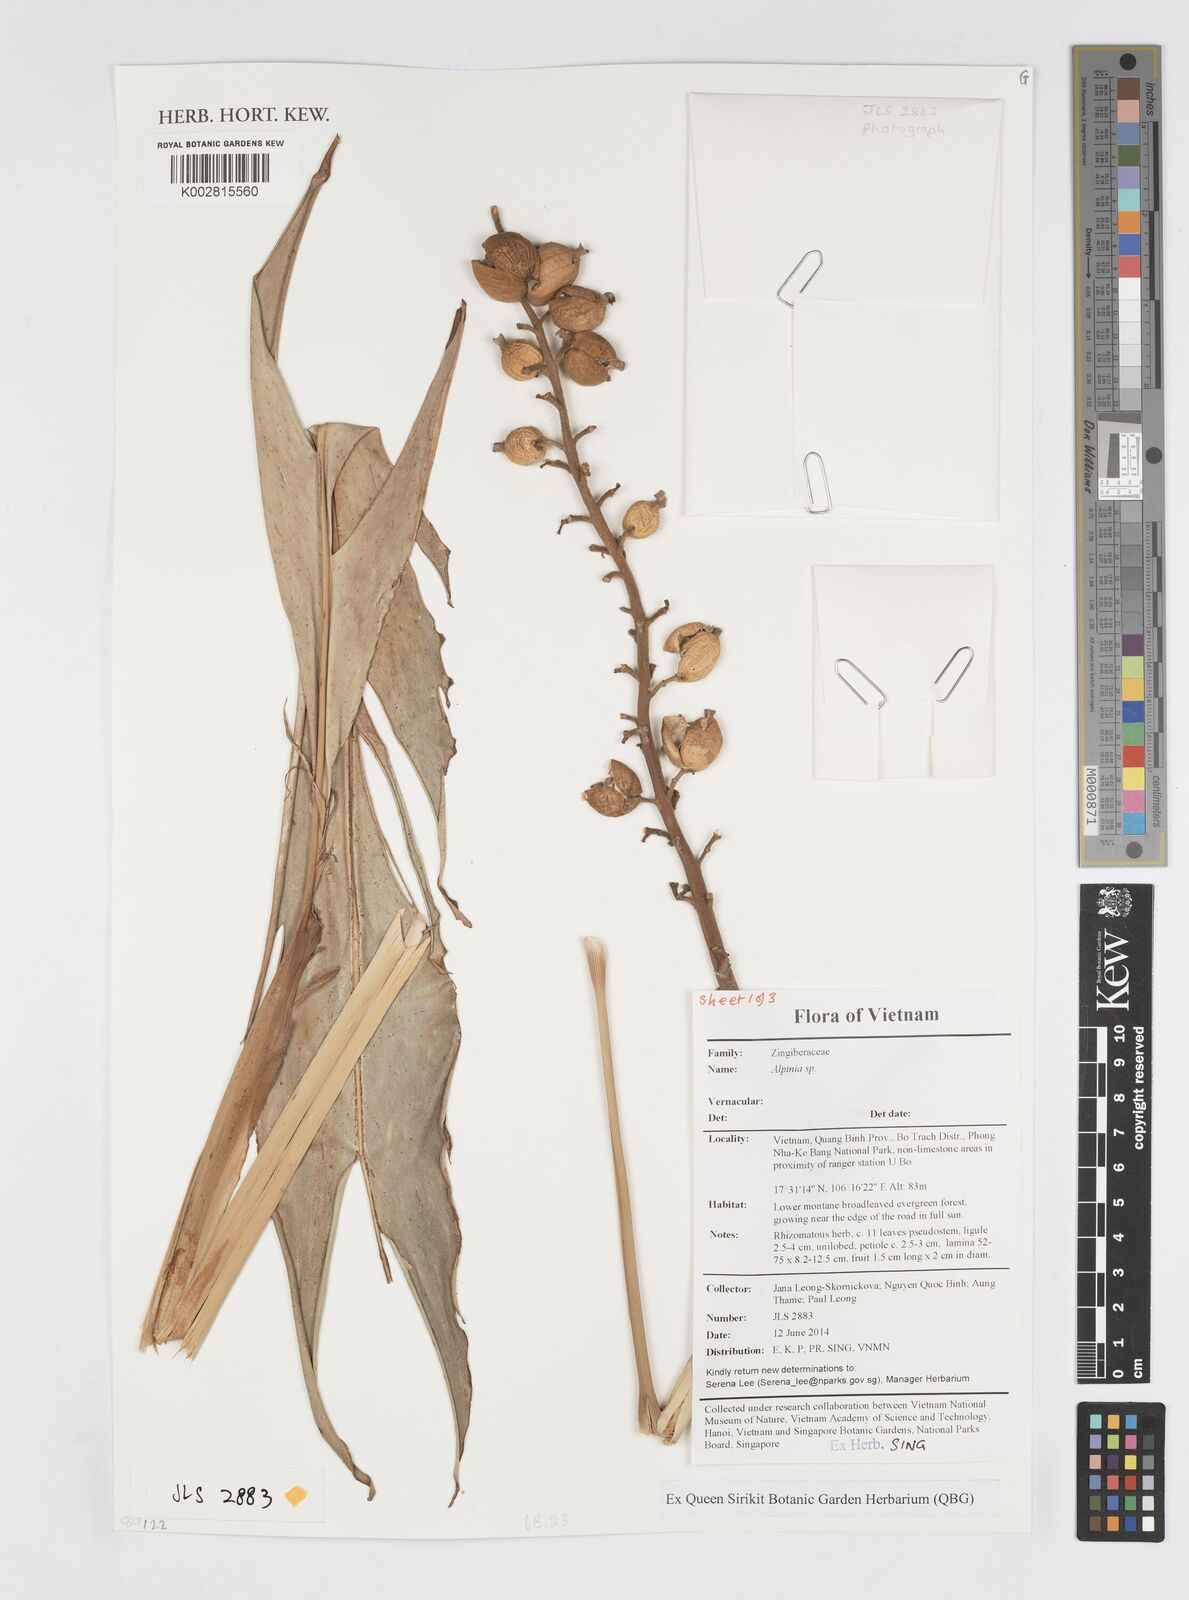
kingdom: Plantae
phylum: Tracheophyta
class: Liliopsida
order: Zingiberales
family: Zingiberaceae
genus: Alpinia
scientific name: Alpinia
